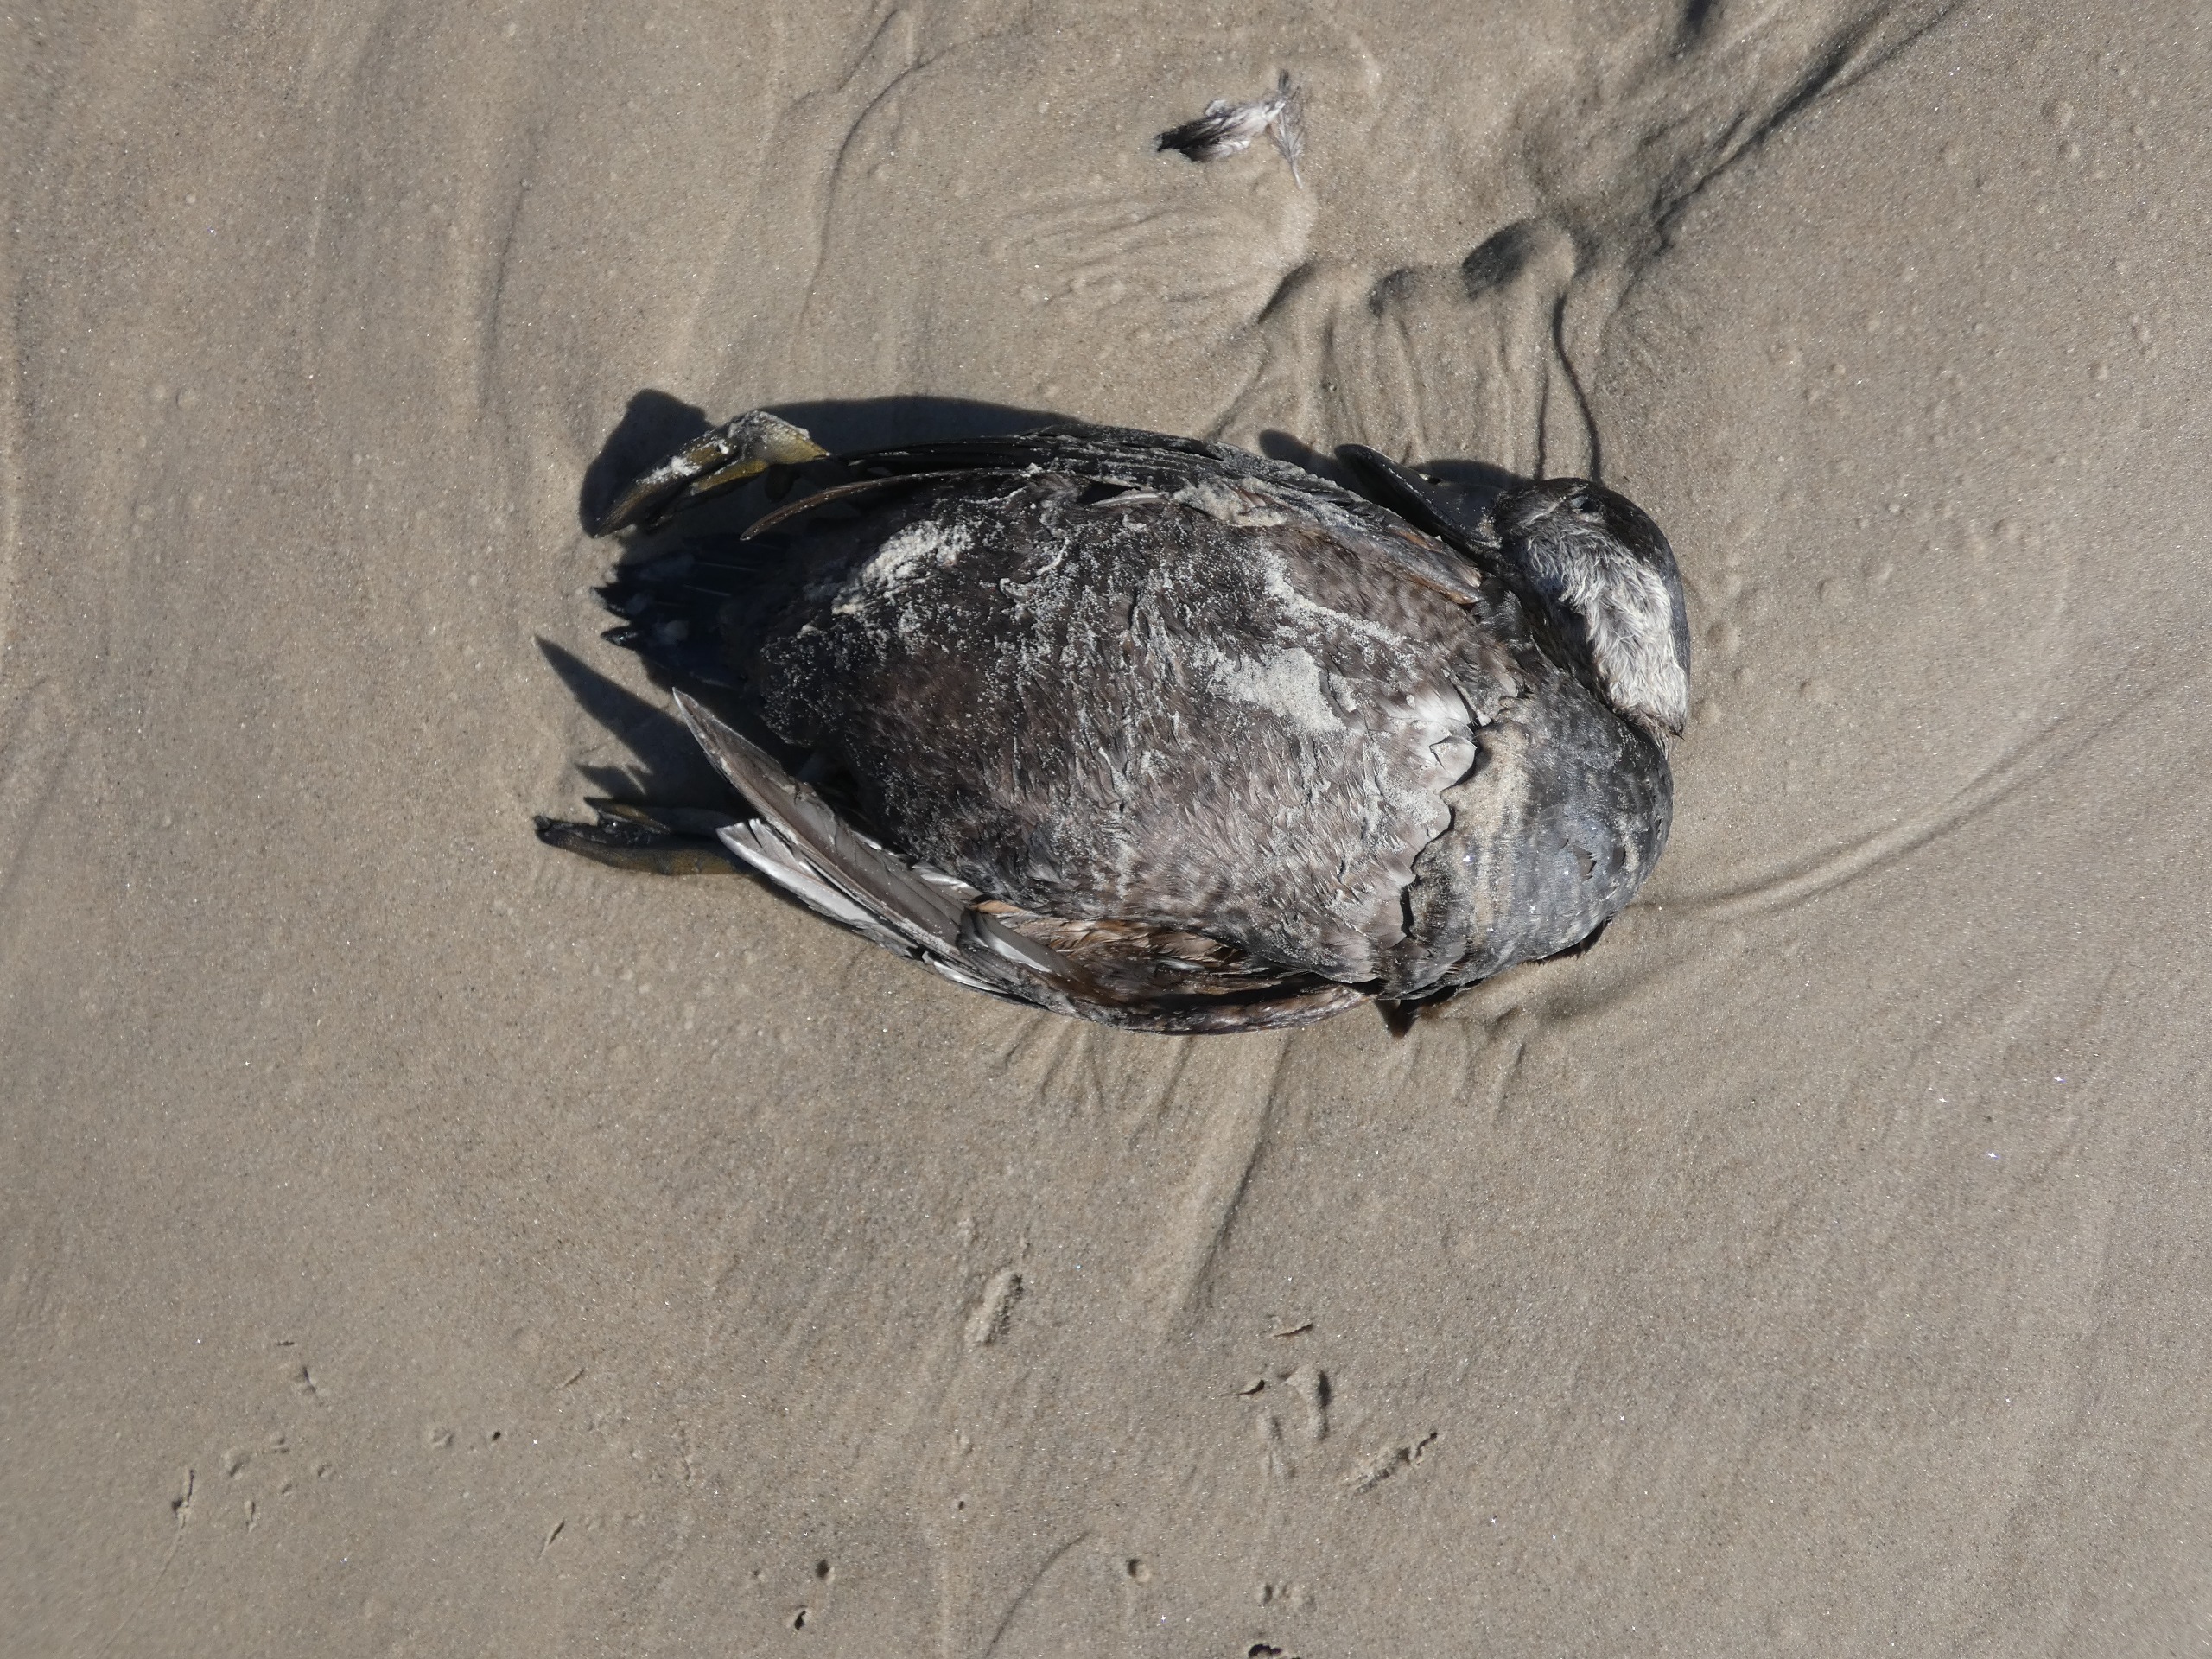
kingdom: Animalia
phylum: Chordata
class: Aves
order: Anseriformes
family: Anatidae
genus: Melanitta
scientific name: Melanitta nigra
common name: Sortand
